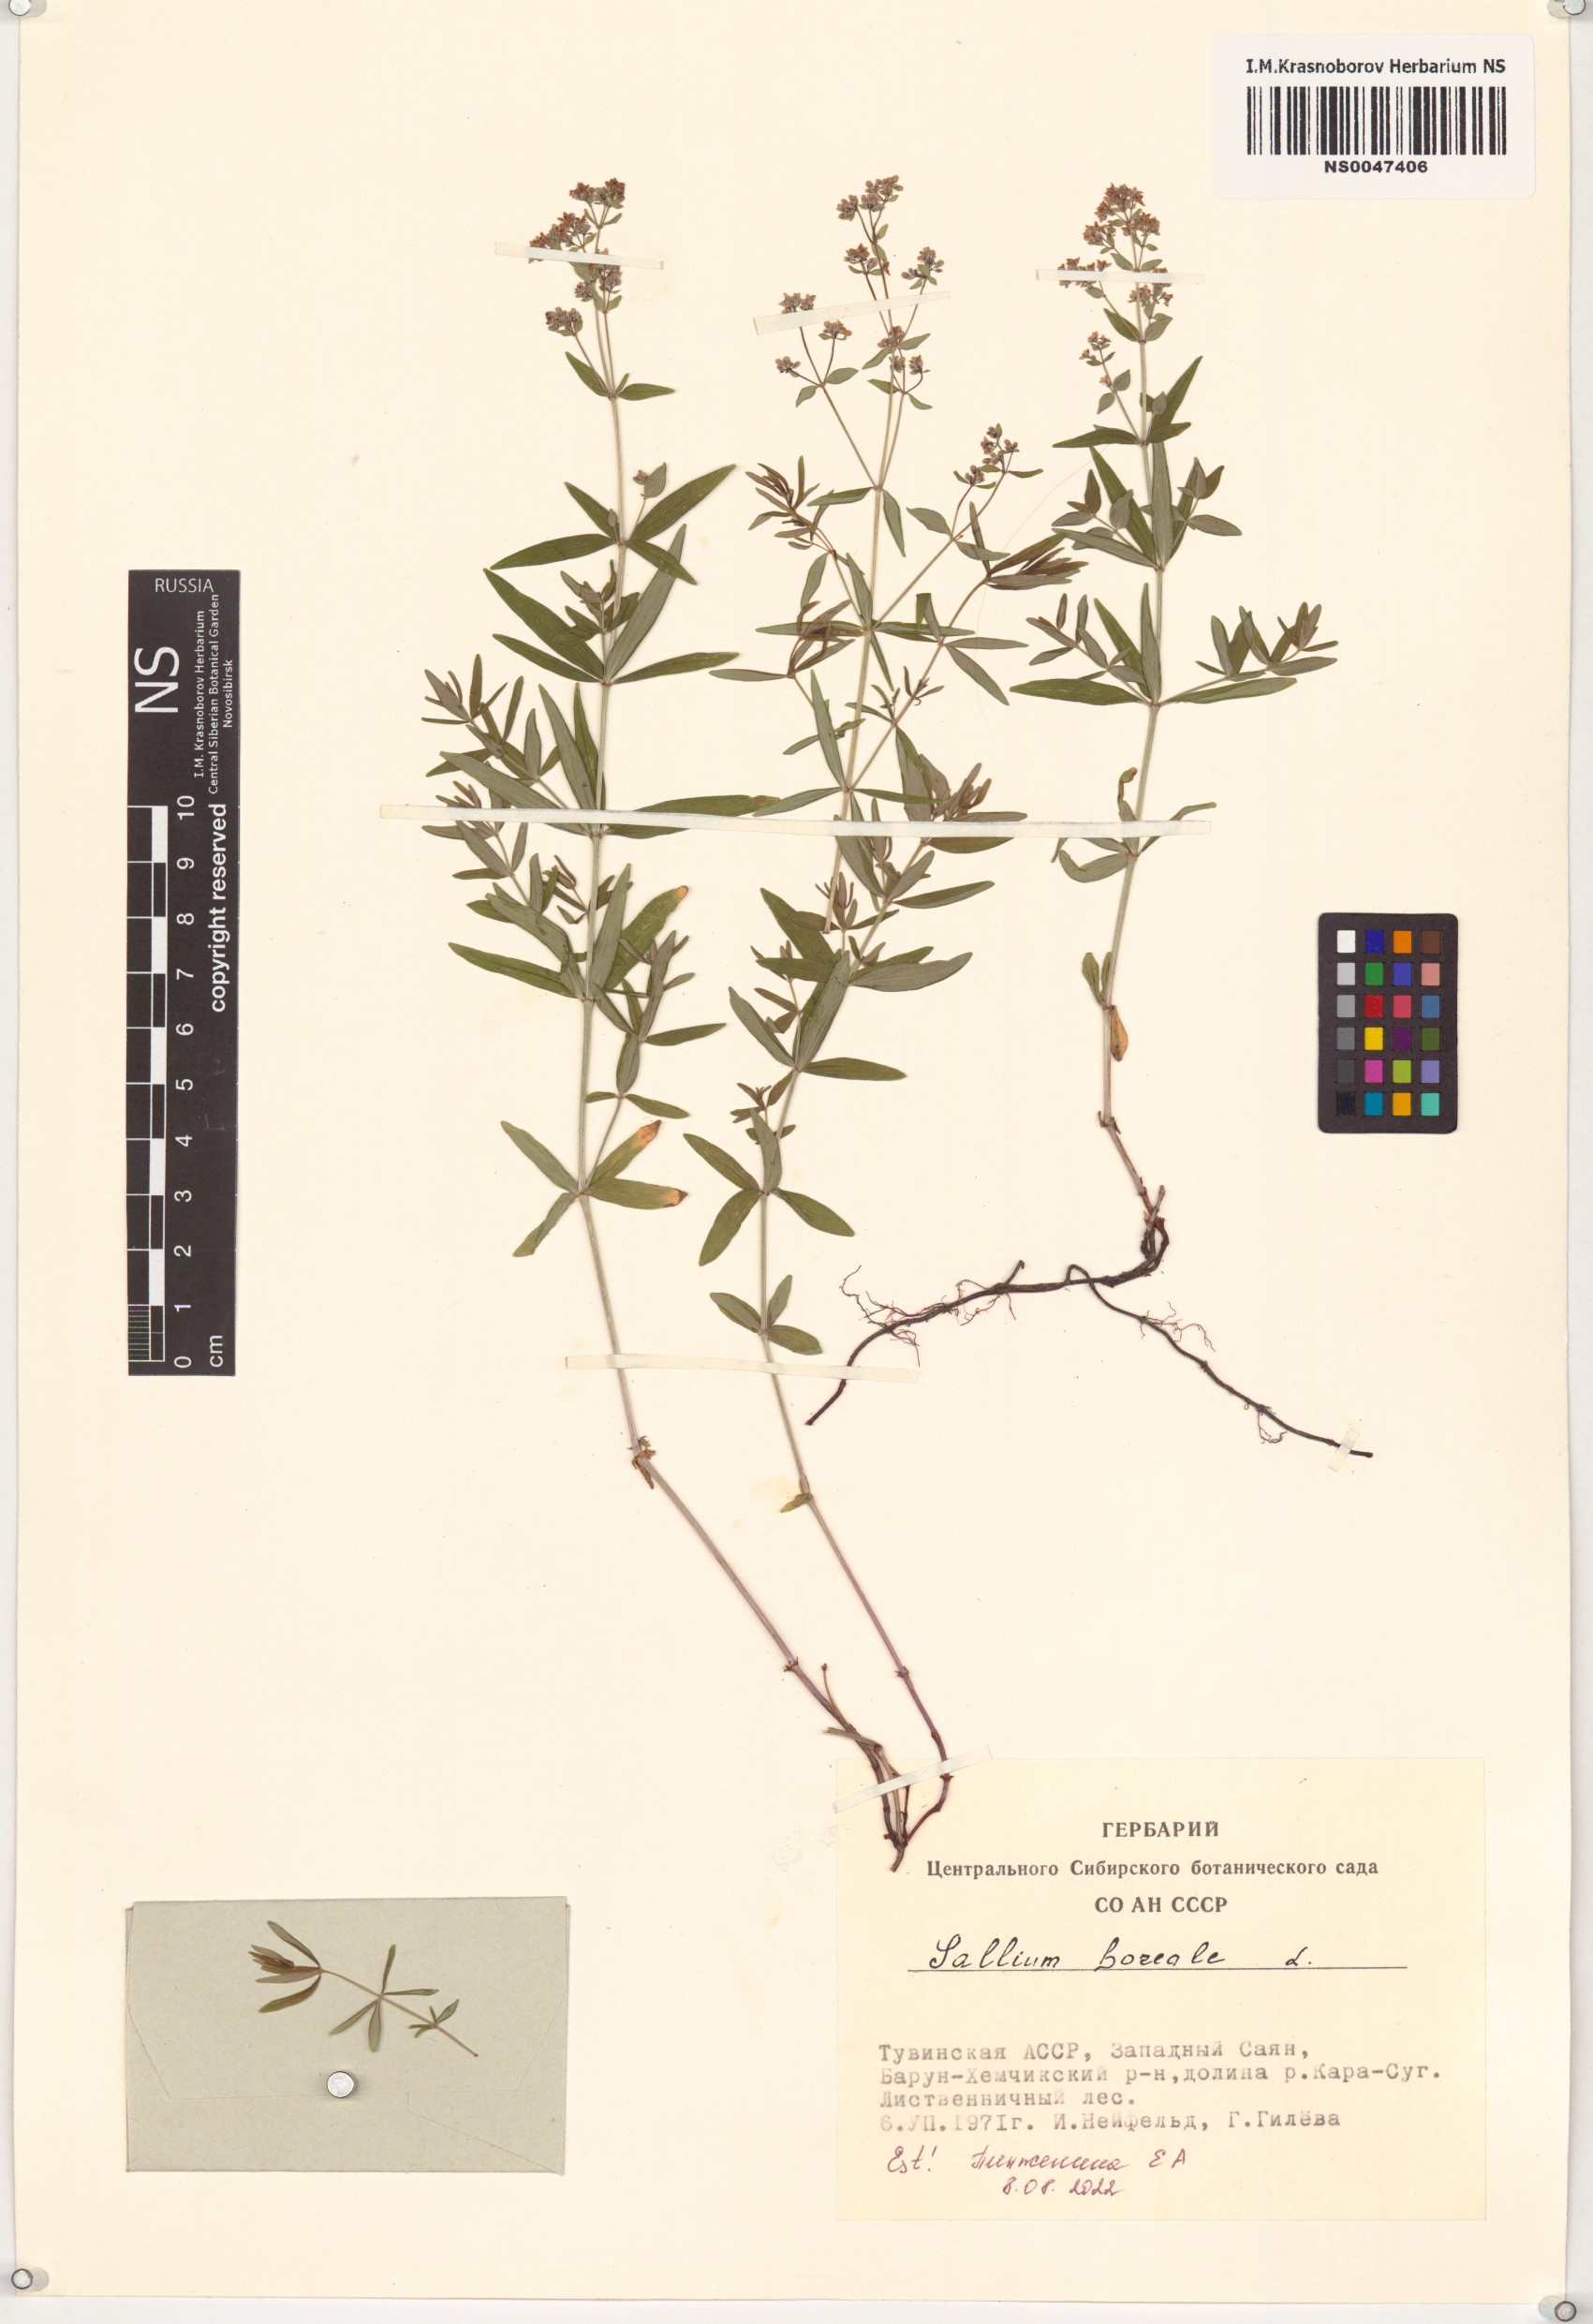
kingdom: Plantae
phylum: Tracheophyta
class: Magnoliopsida
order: Gentianales
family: Rubiaceae
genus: Galium
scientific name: Galium boreale
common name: Northern bedstraw
